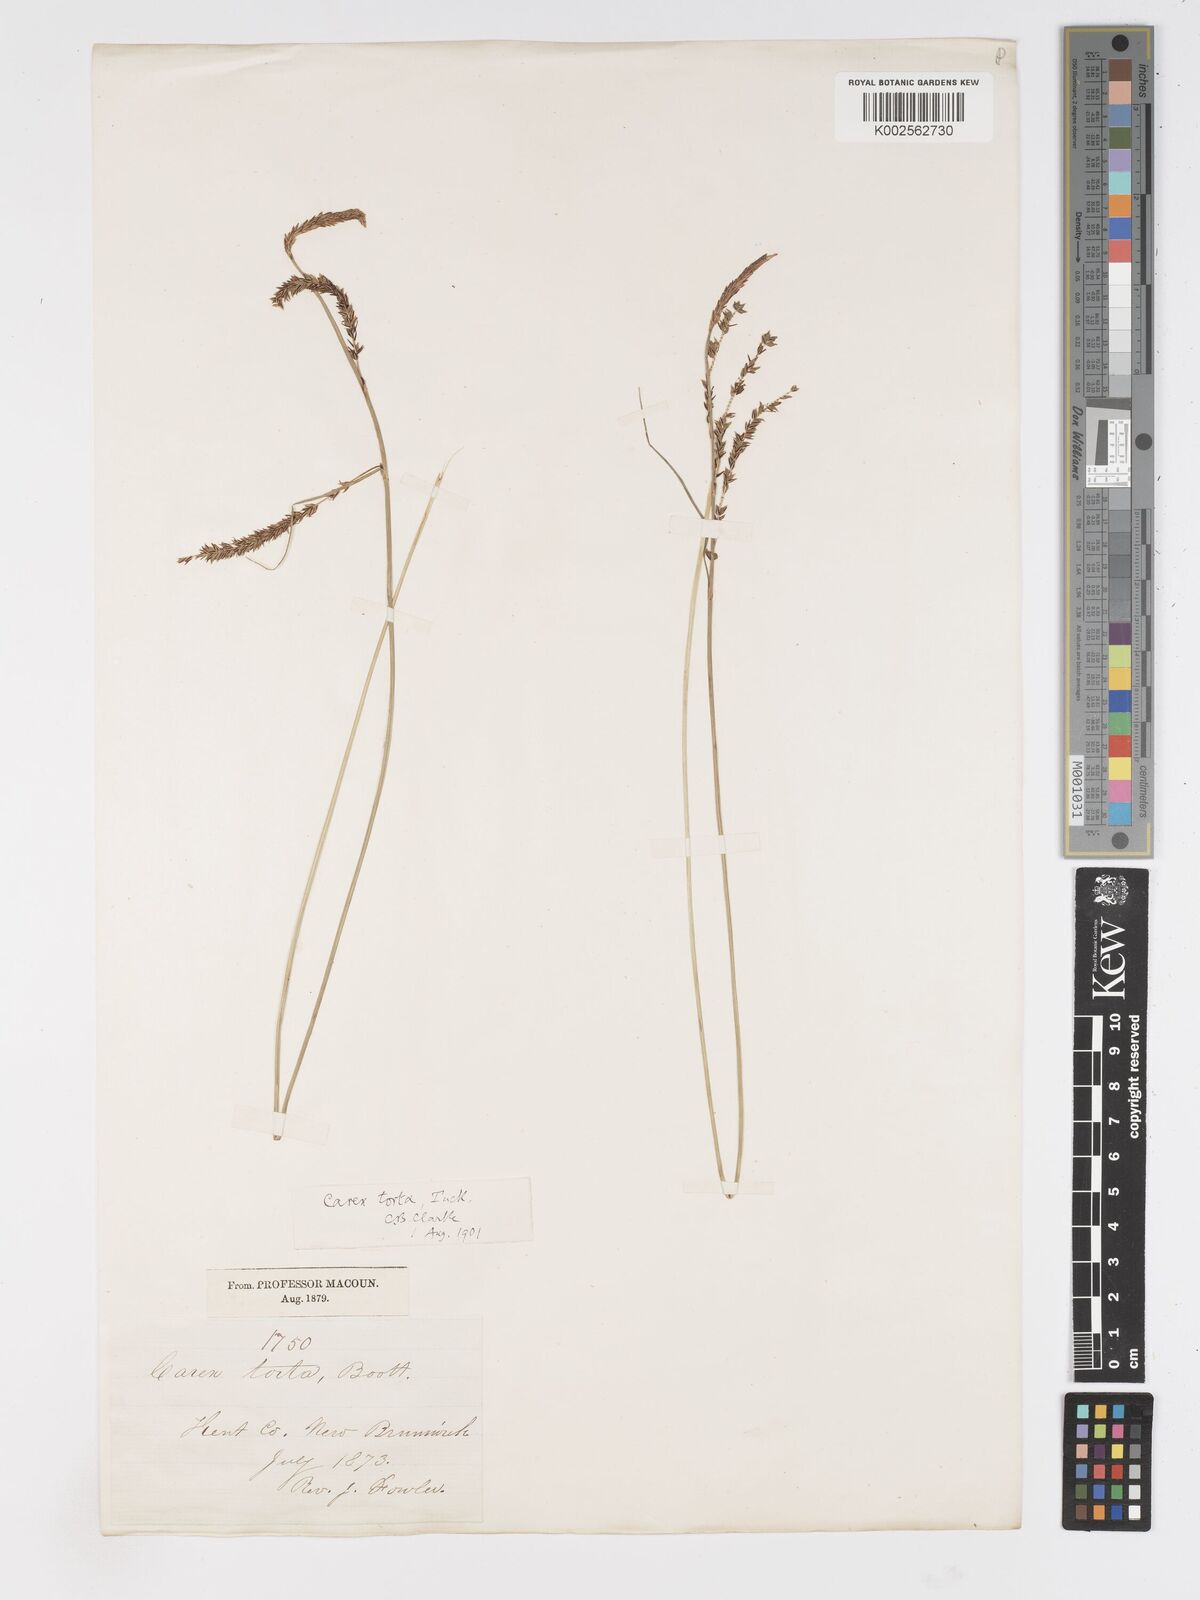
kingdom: Plantae
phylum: Tracheophyta
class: Liliopsida
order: Poales
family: Cyperaceae
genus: Carex
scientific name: Carex torta
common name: Twisted sedge
